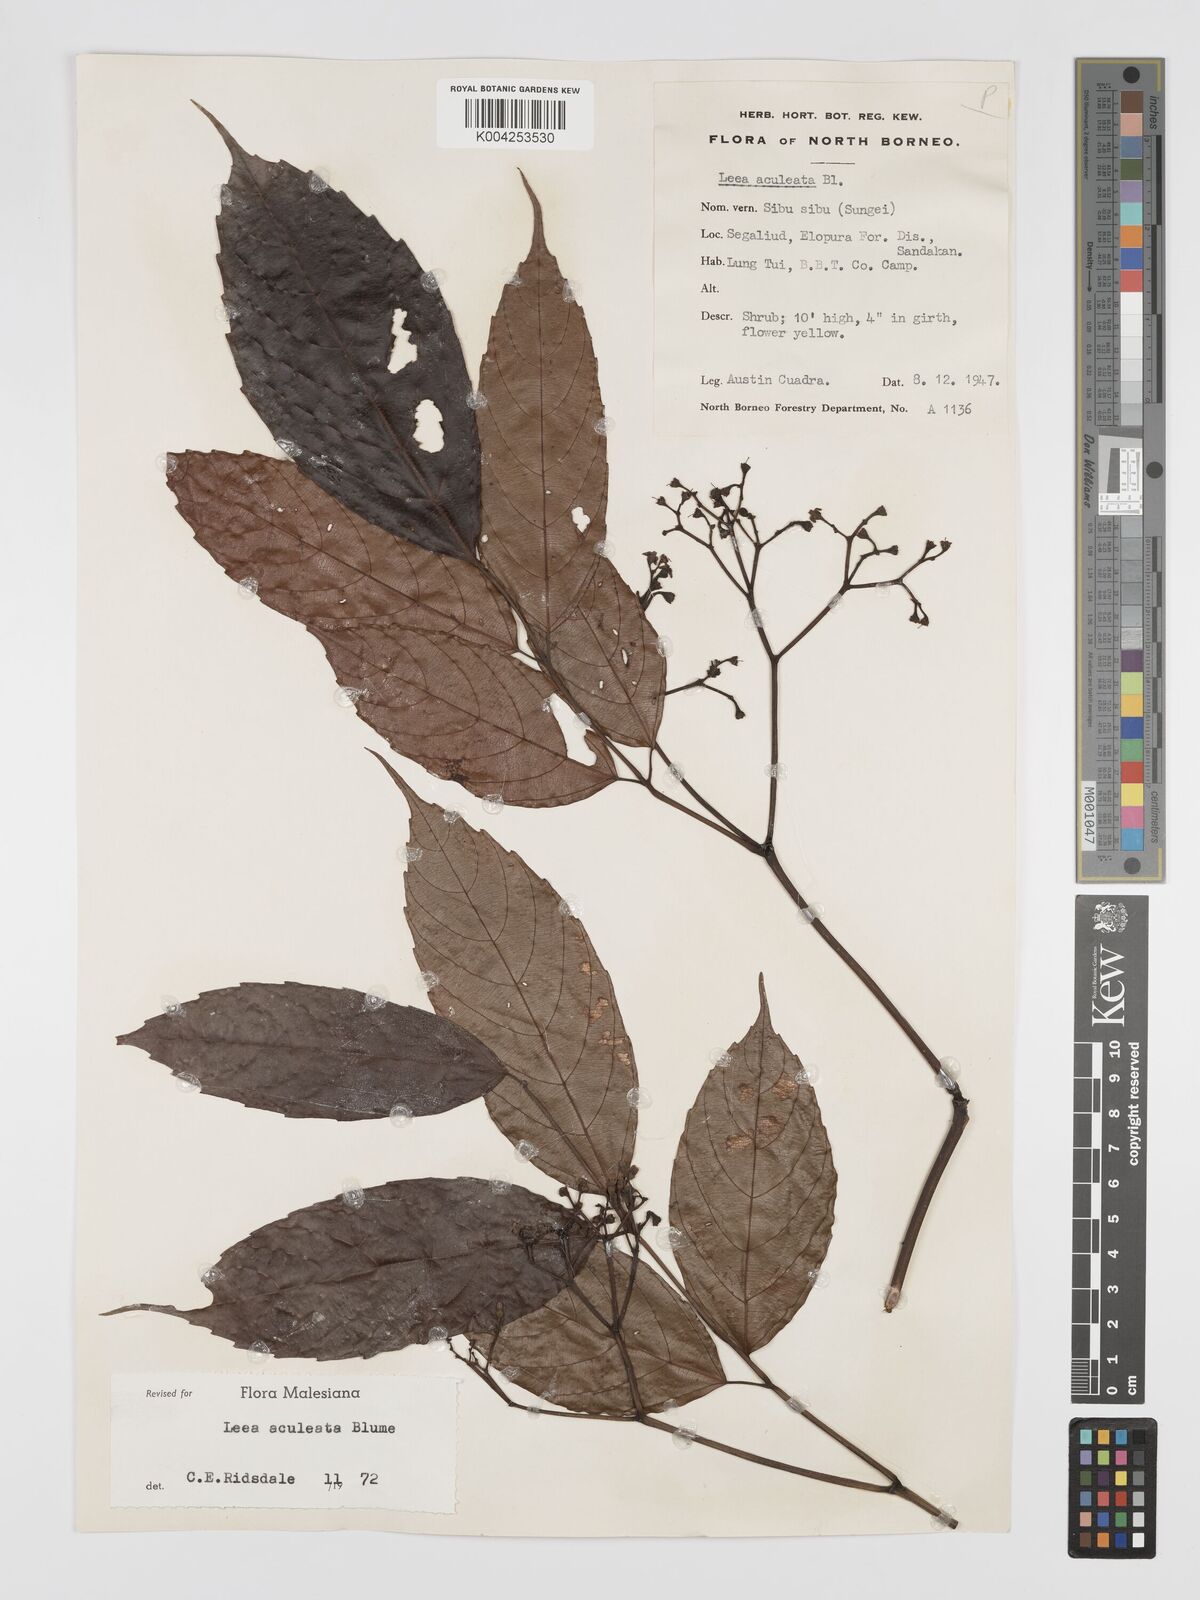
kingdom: Plantae
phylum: Tracheophyta
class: Magnoliopsida
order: Vitales
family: Vitaceae
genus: Leea
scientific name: Leea aculeata
